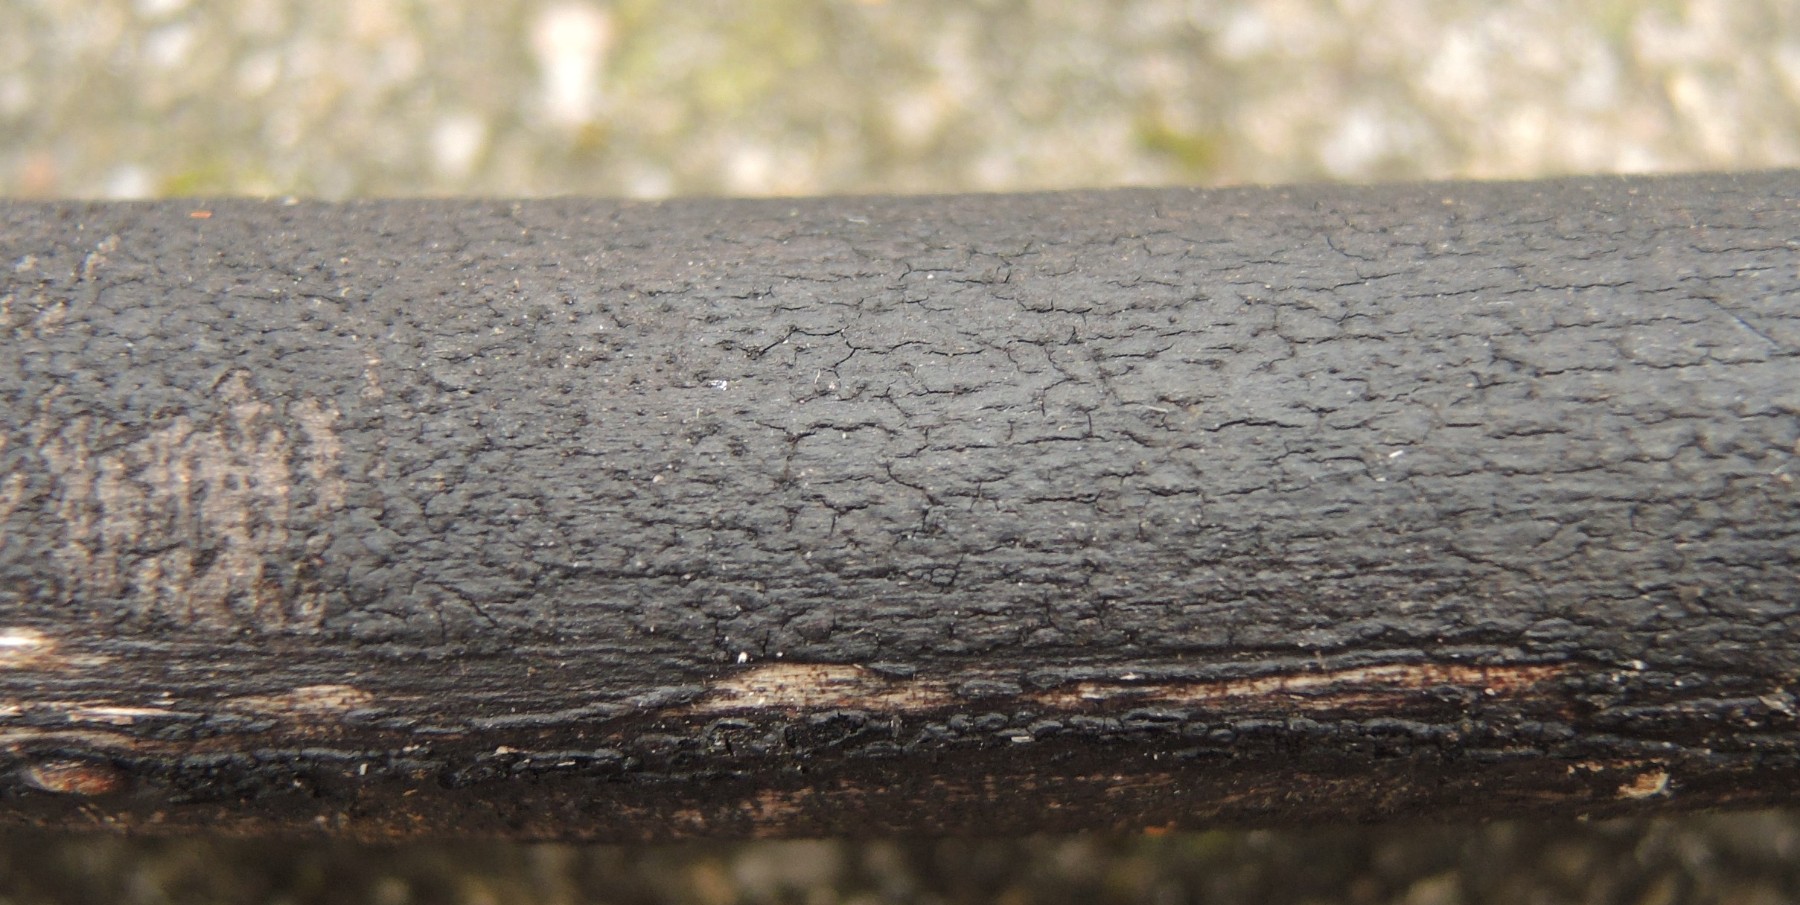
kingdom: Fungi
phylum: Ascomycota
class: Sordariomycetes
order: Xylariales
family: Diatrypaceae
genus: Eutypa
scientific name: Eutypa maura
